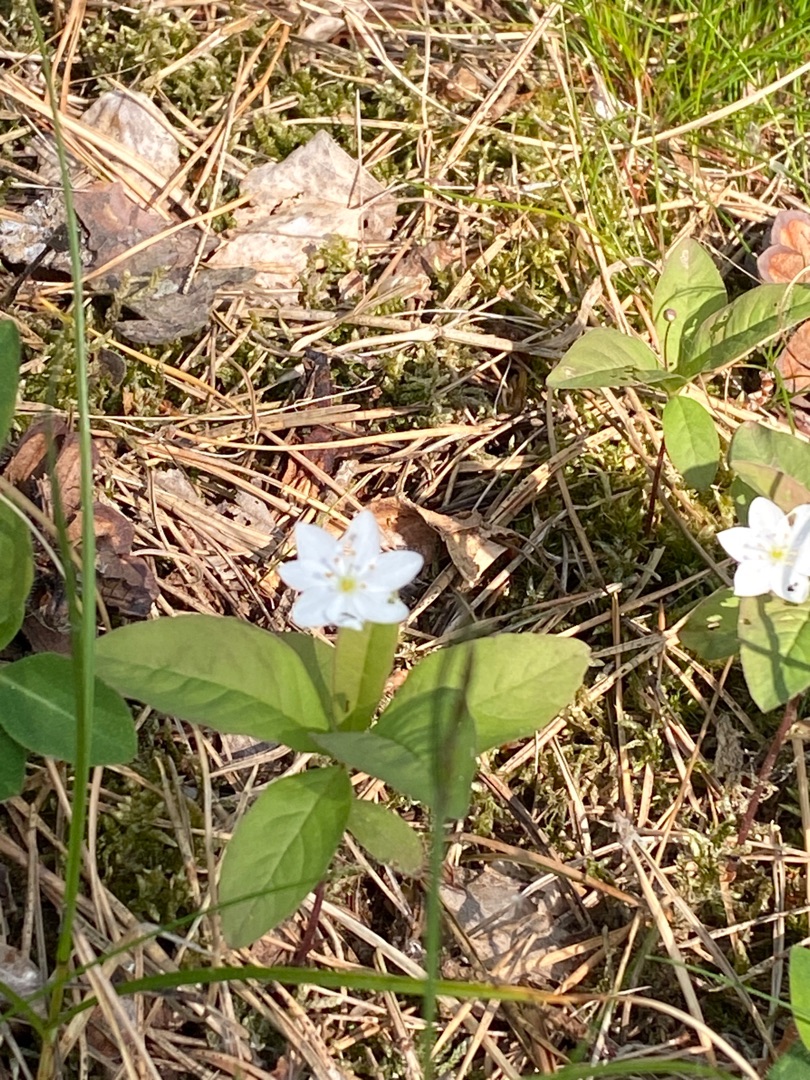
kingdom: Plantae
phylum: Tracheophyta
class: Magnoliopsida
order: Ericales
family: Primulaceae
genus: Lysimachia
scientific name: Lysimachia europaea
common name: Skovstjerne
